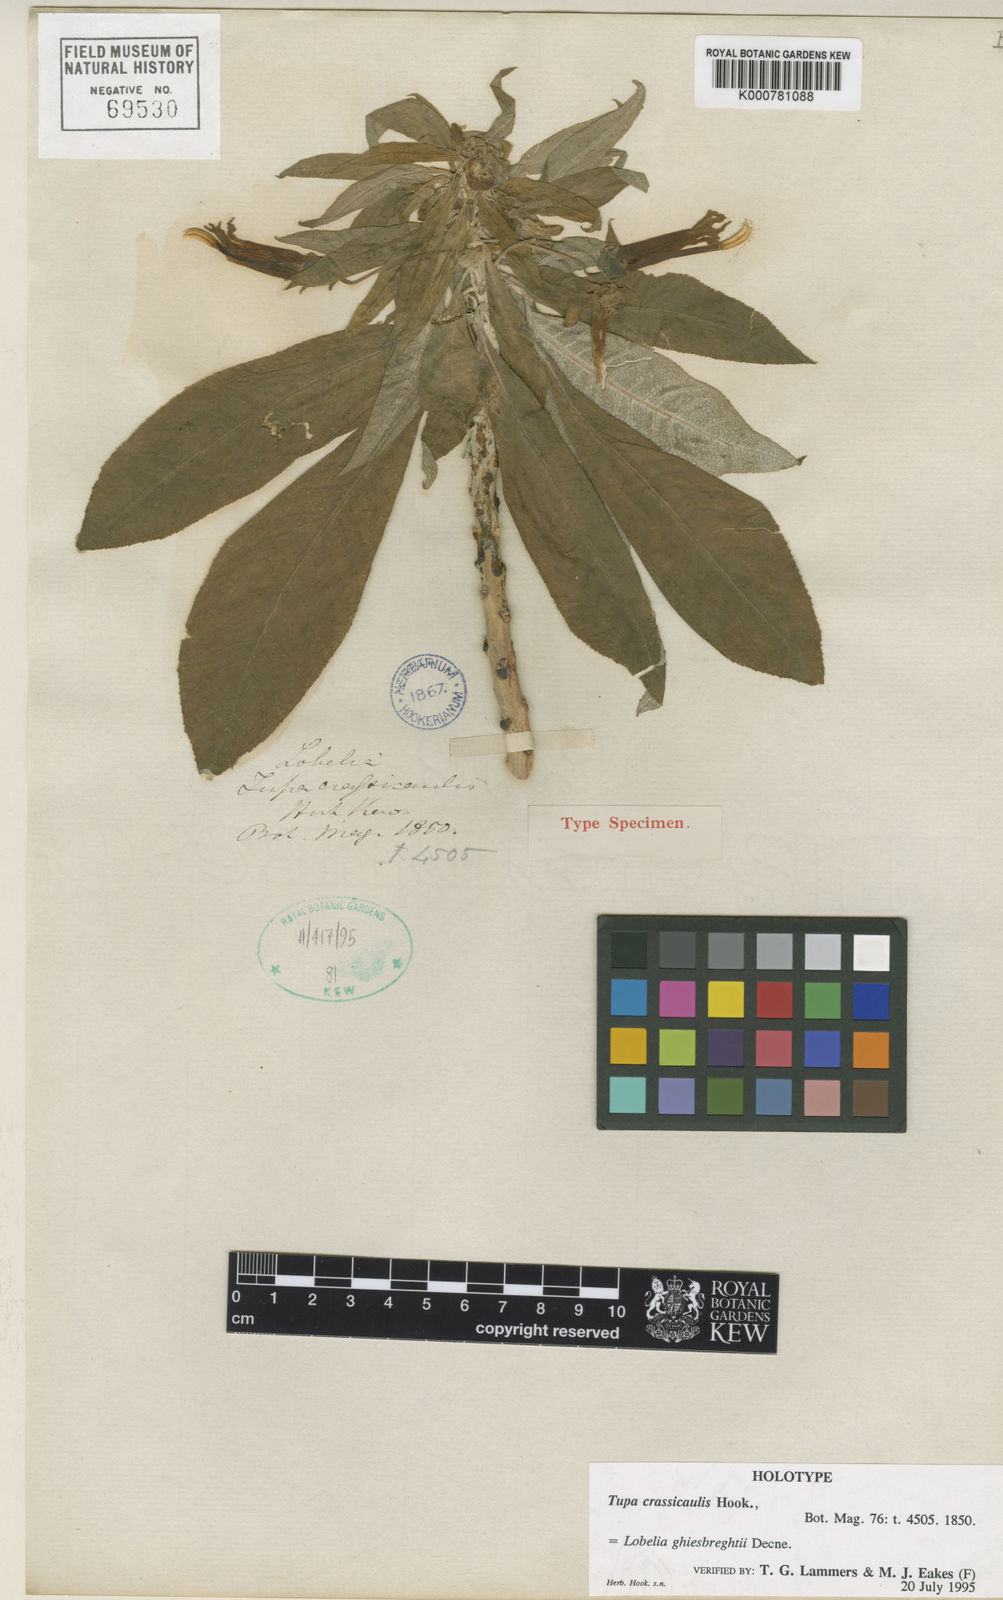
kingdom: Plantae
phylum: Tracheophyta
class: Magnoliopsida
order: Asterales
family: Campanulaceae
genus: Lobelia
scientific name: Lobelia ghiesbreghtii
